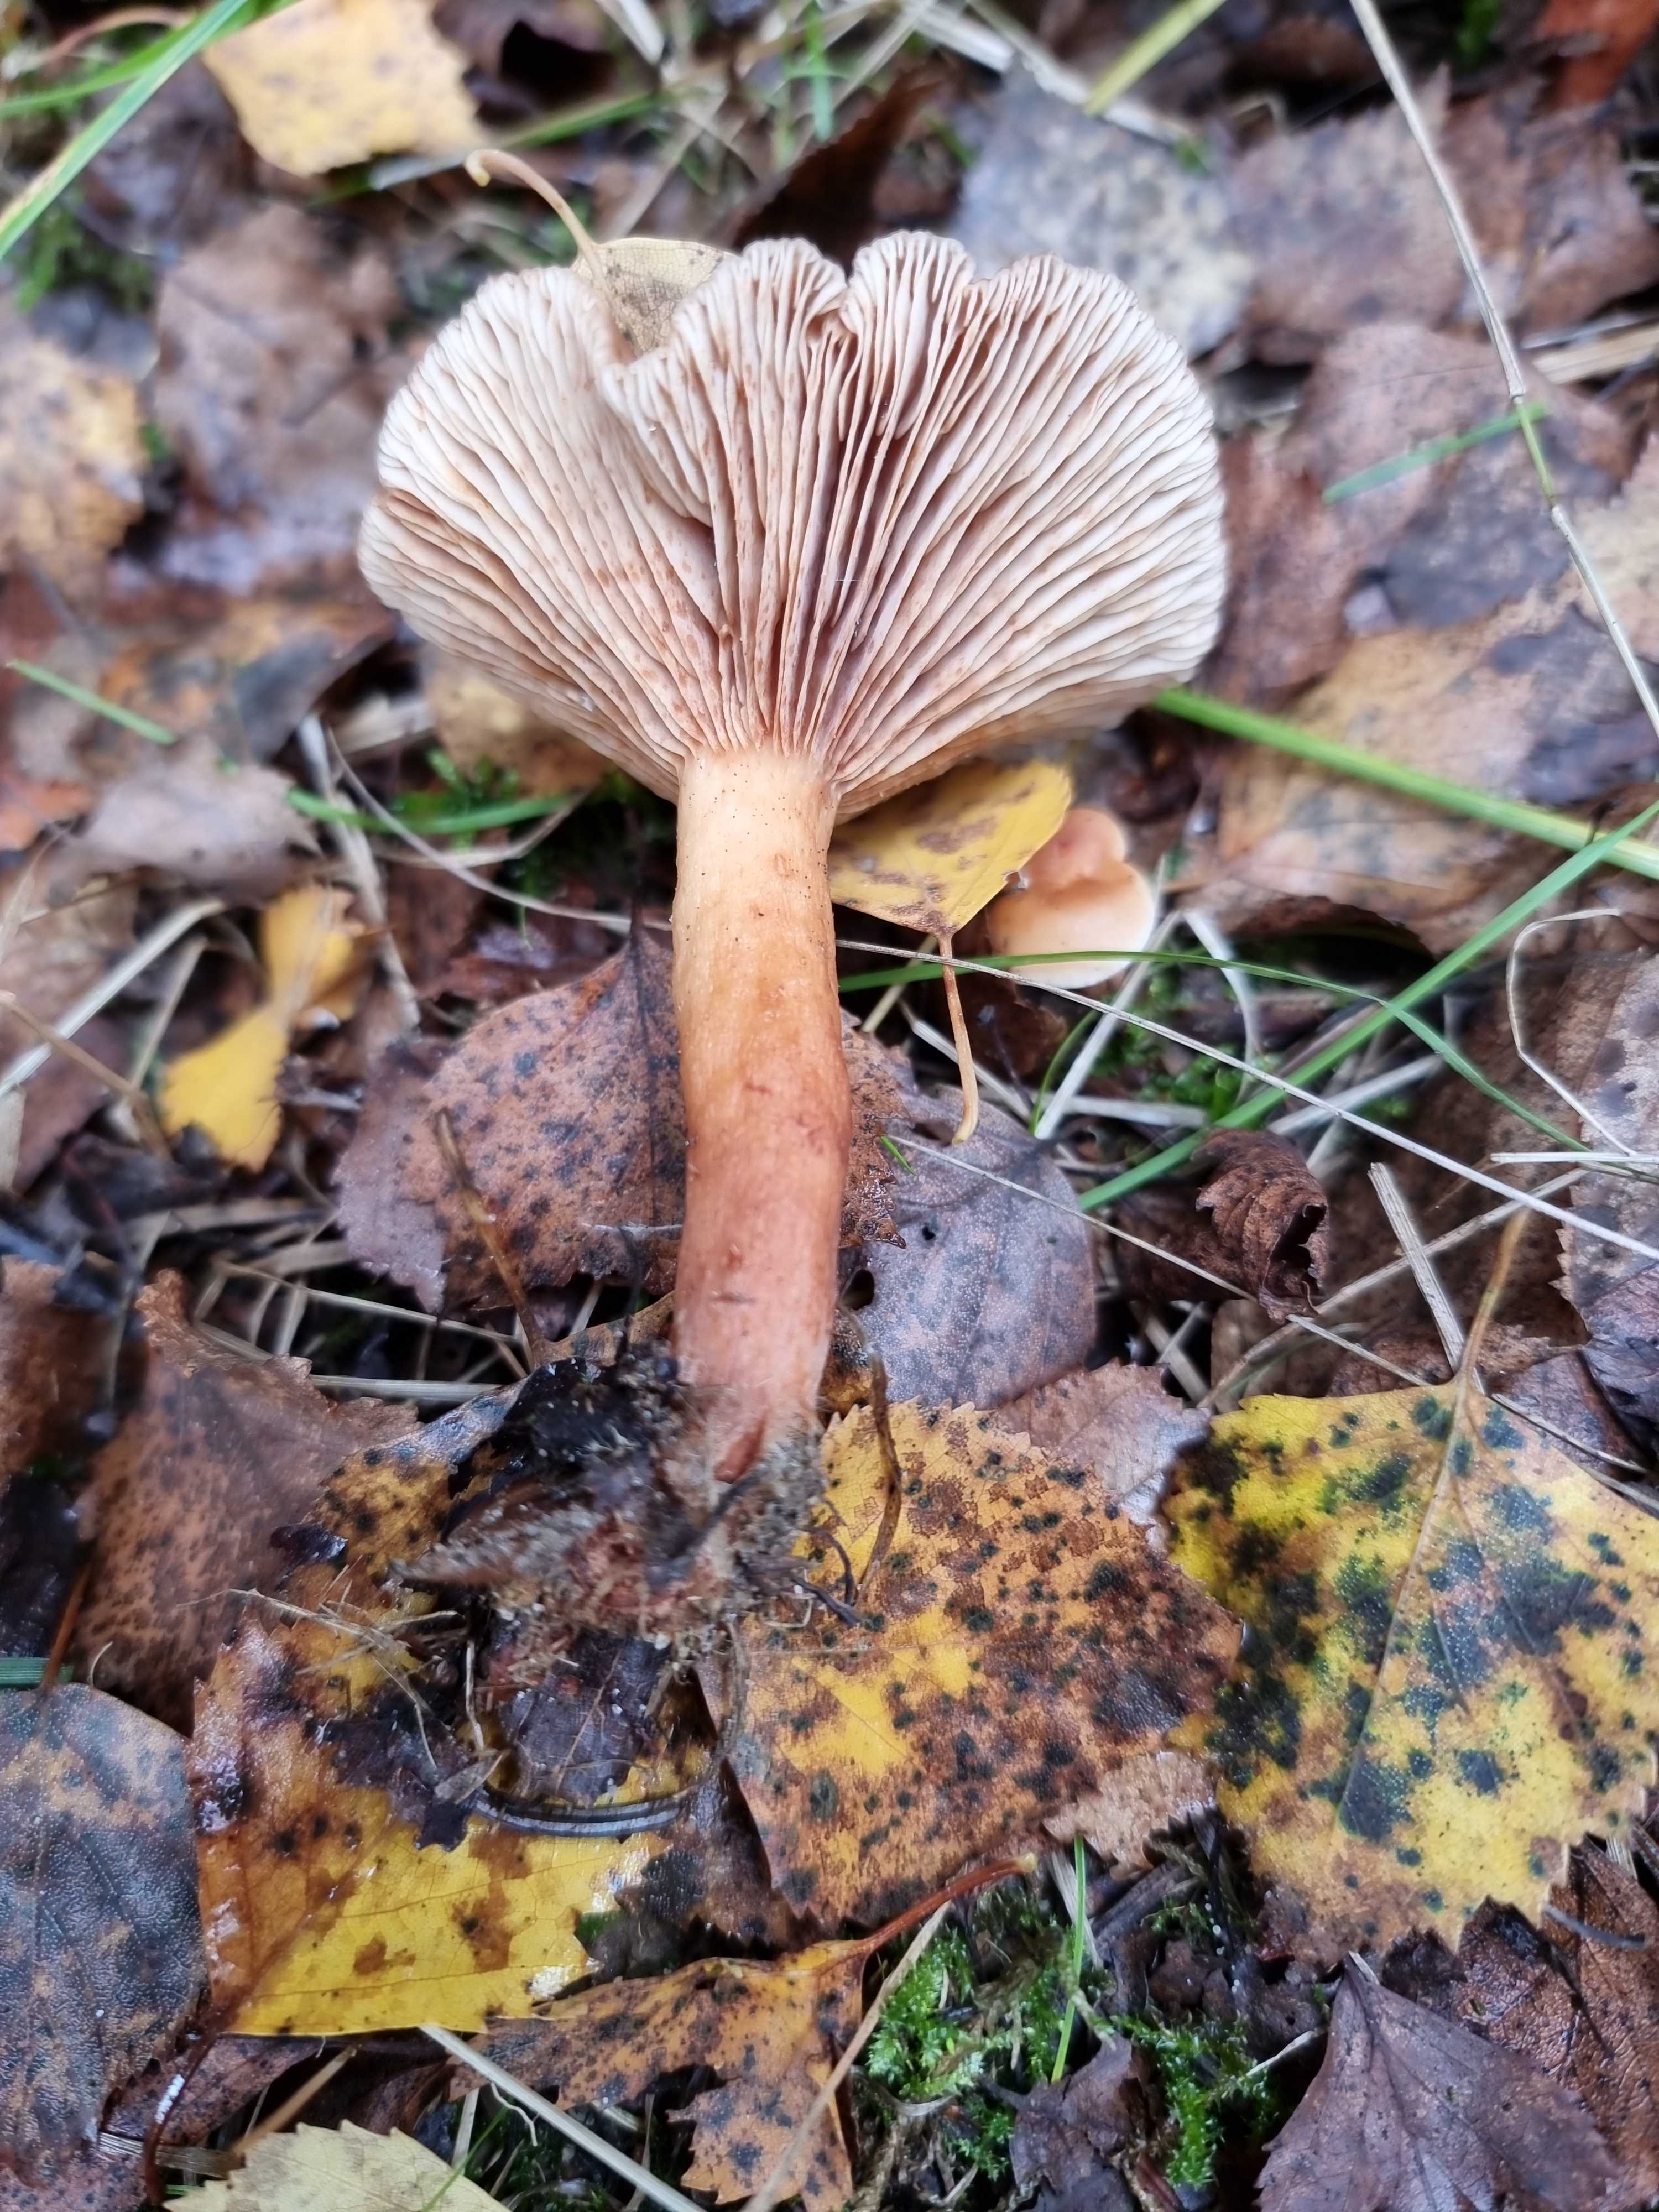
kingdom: Fungi
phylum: Basidiomycota
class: Agaricomycetes
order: Russulales
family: Russulaceae
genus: Lactarius
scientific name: Lactarius tabidus
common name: rynket mælkehat
